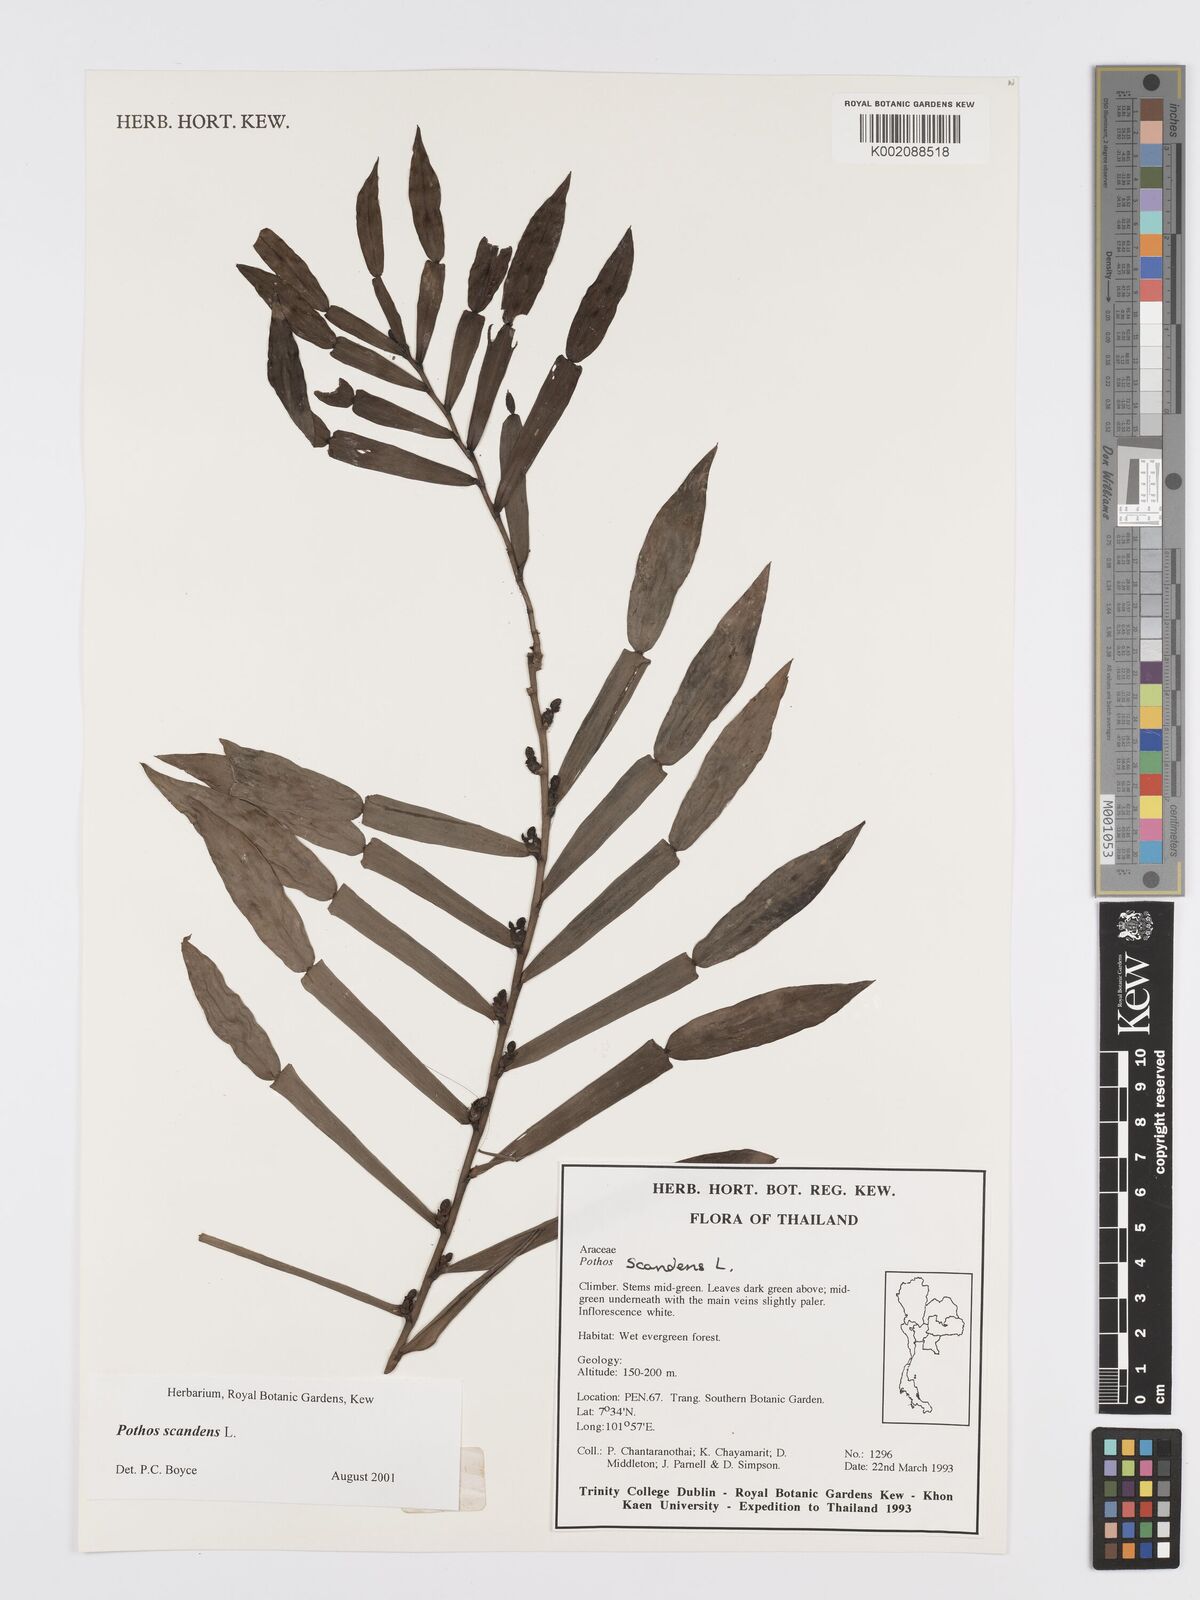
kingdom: Plantae
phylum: Tracheophyta
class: Liliopsida
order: Alismatales
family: Araceae
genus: Pothos
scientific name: Pothos scandens
